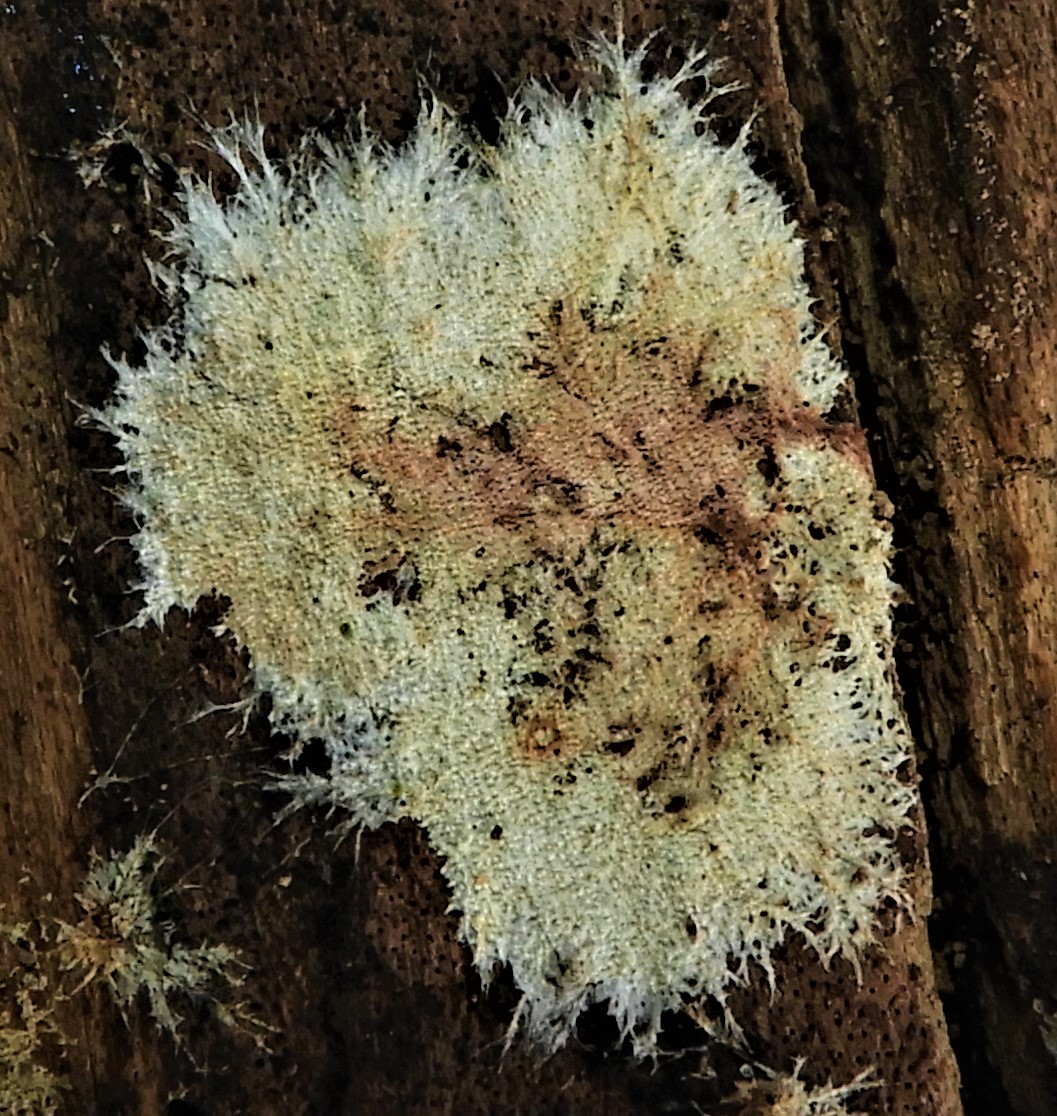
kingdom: Fungi
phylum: Basidiomycota
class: Agaricomycetes
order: Corticiales
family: Corticiaceae
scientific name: Corticiaceae
